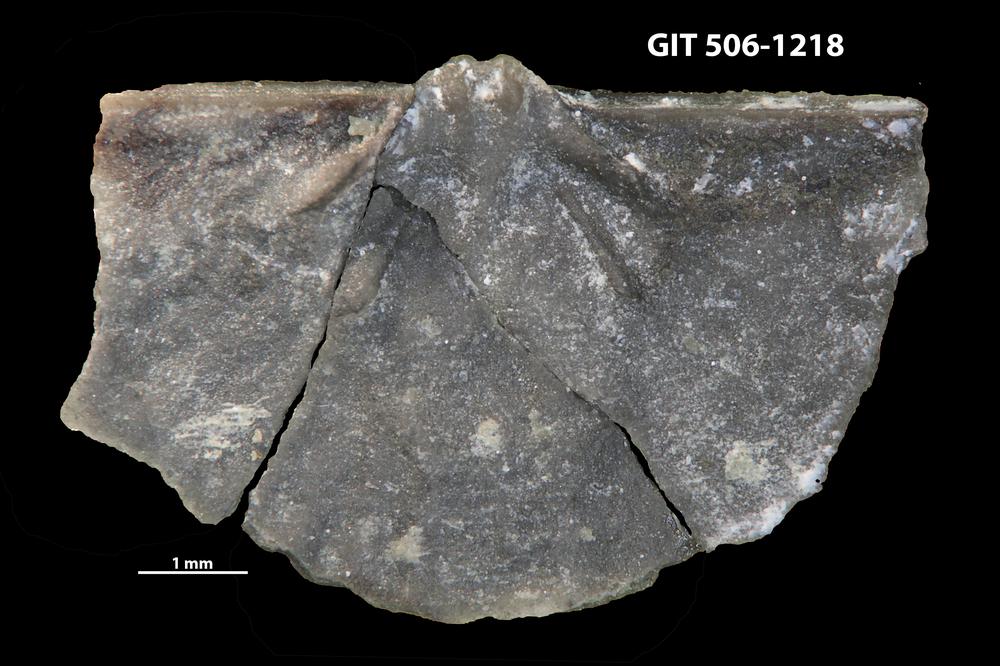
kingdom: Animalia
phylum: Brachiopoda
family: Strophomenidae
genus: Katastrophomena
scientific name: Katastrophomena woodlandensis
